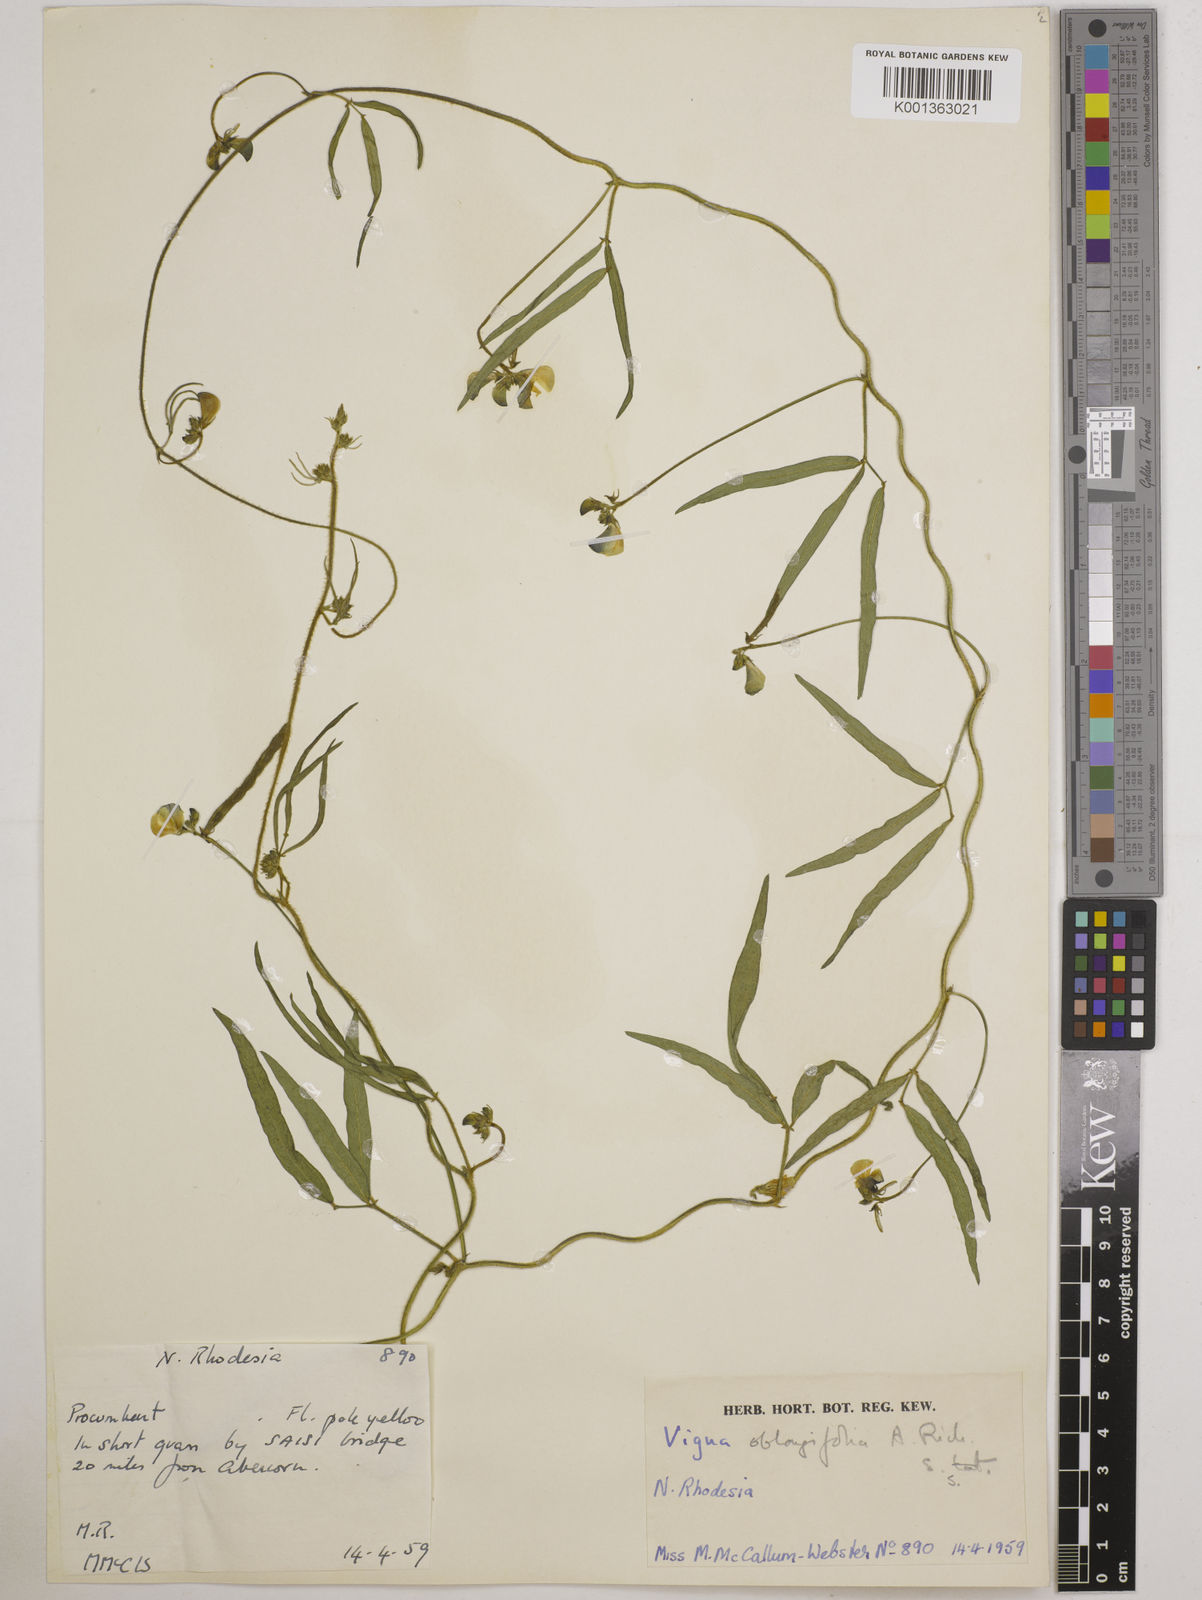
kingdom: Plantae
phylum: Tracheophyta
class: Magnoliopsida
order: Fabales
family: Fabaceae
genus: Vigna
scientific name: Vigna oblongifolia
